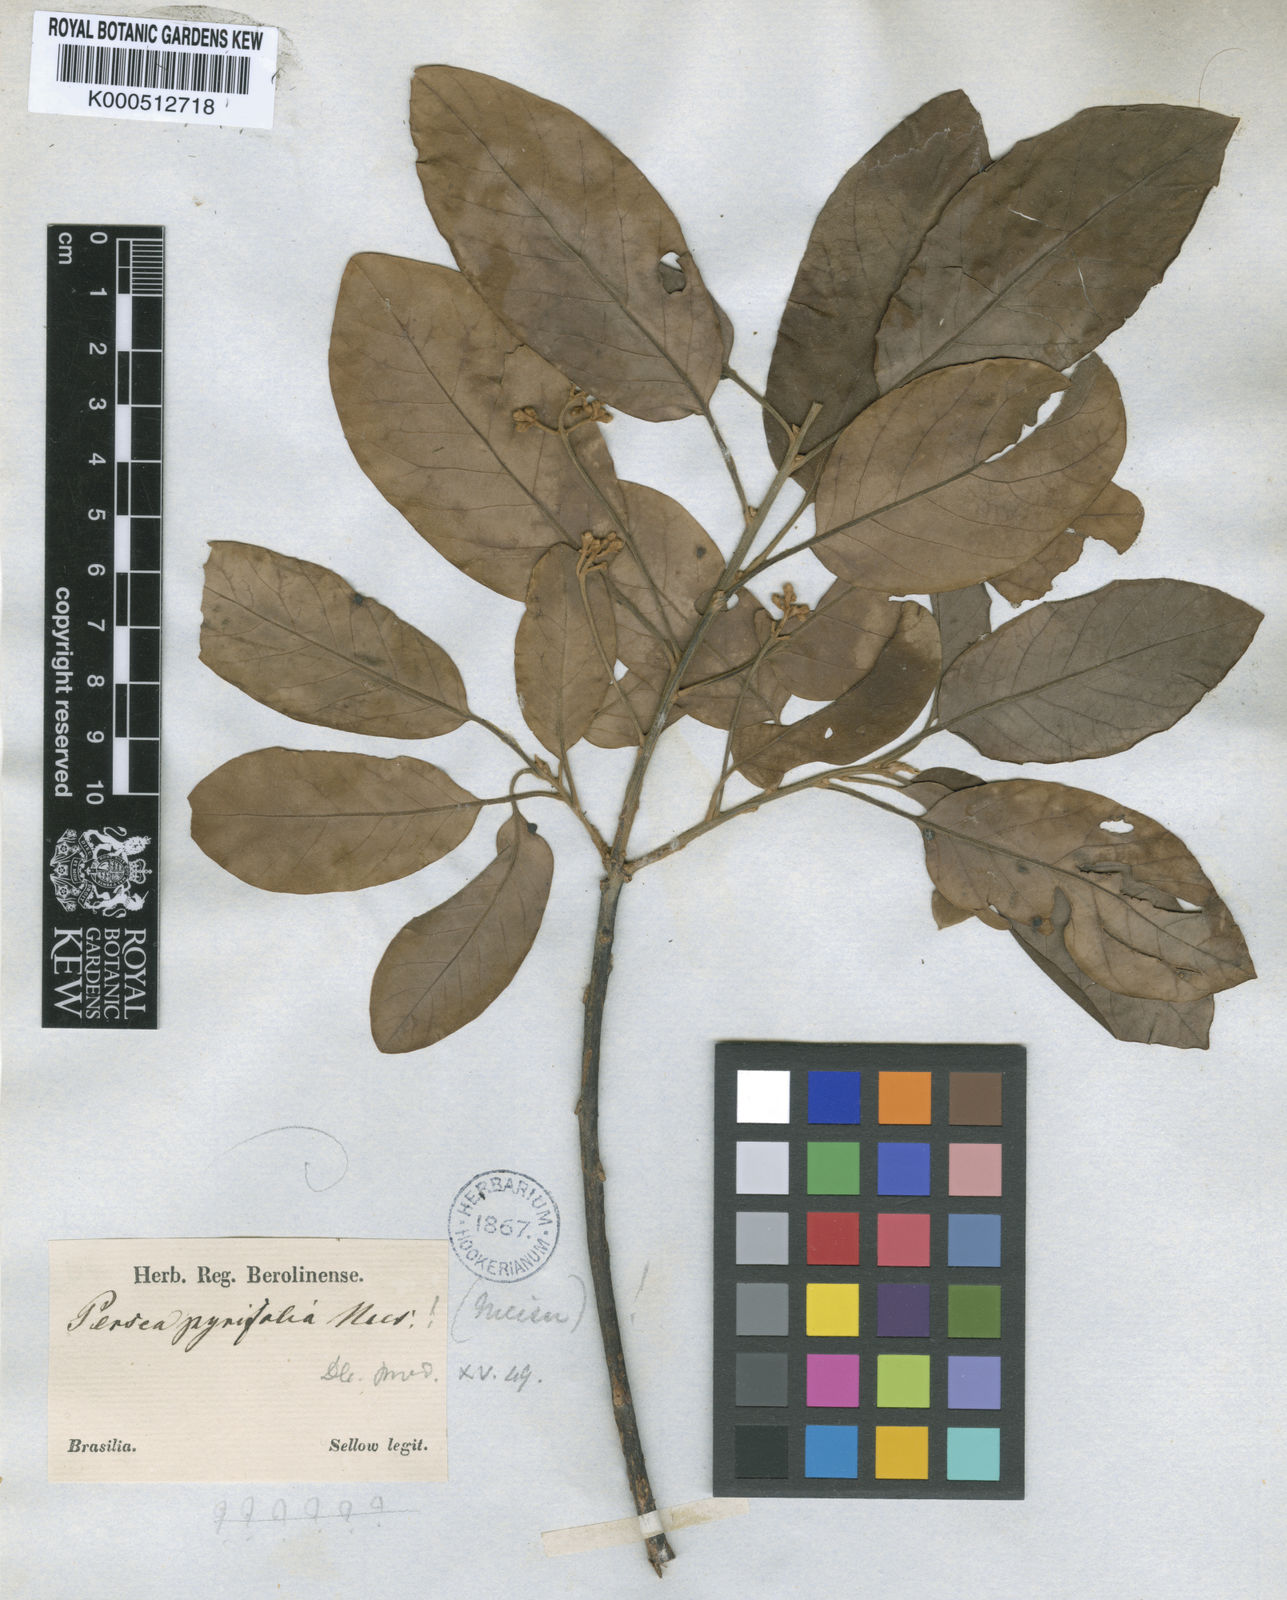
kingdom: Plantae
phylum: Tracheophyta
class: Magnoliopsida
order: Laurales
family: Lauraceae
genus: Persea
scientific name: Persea
